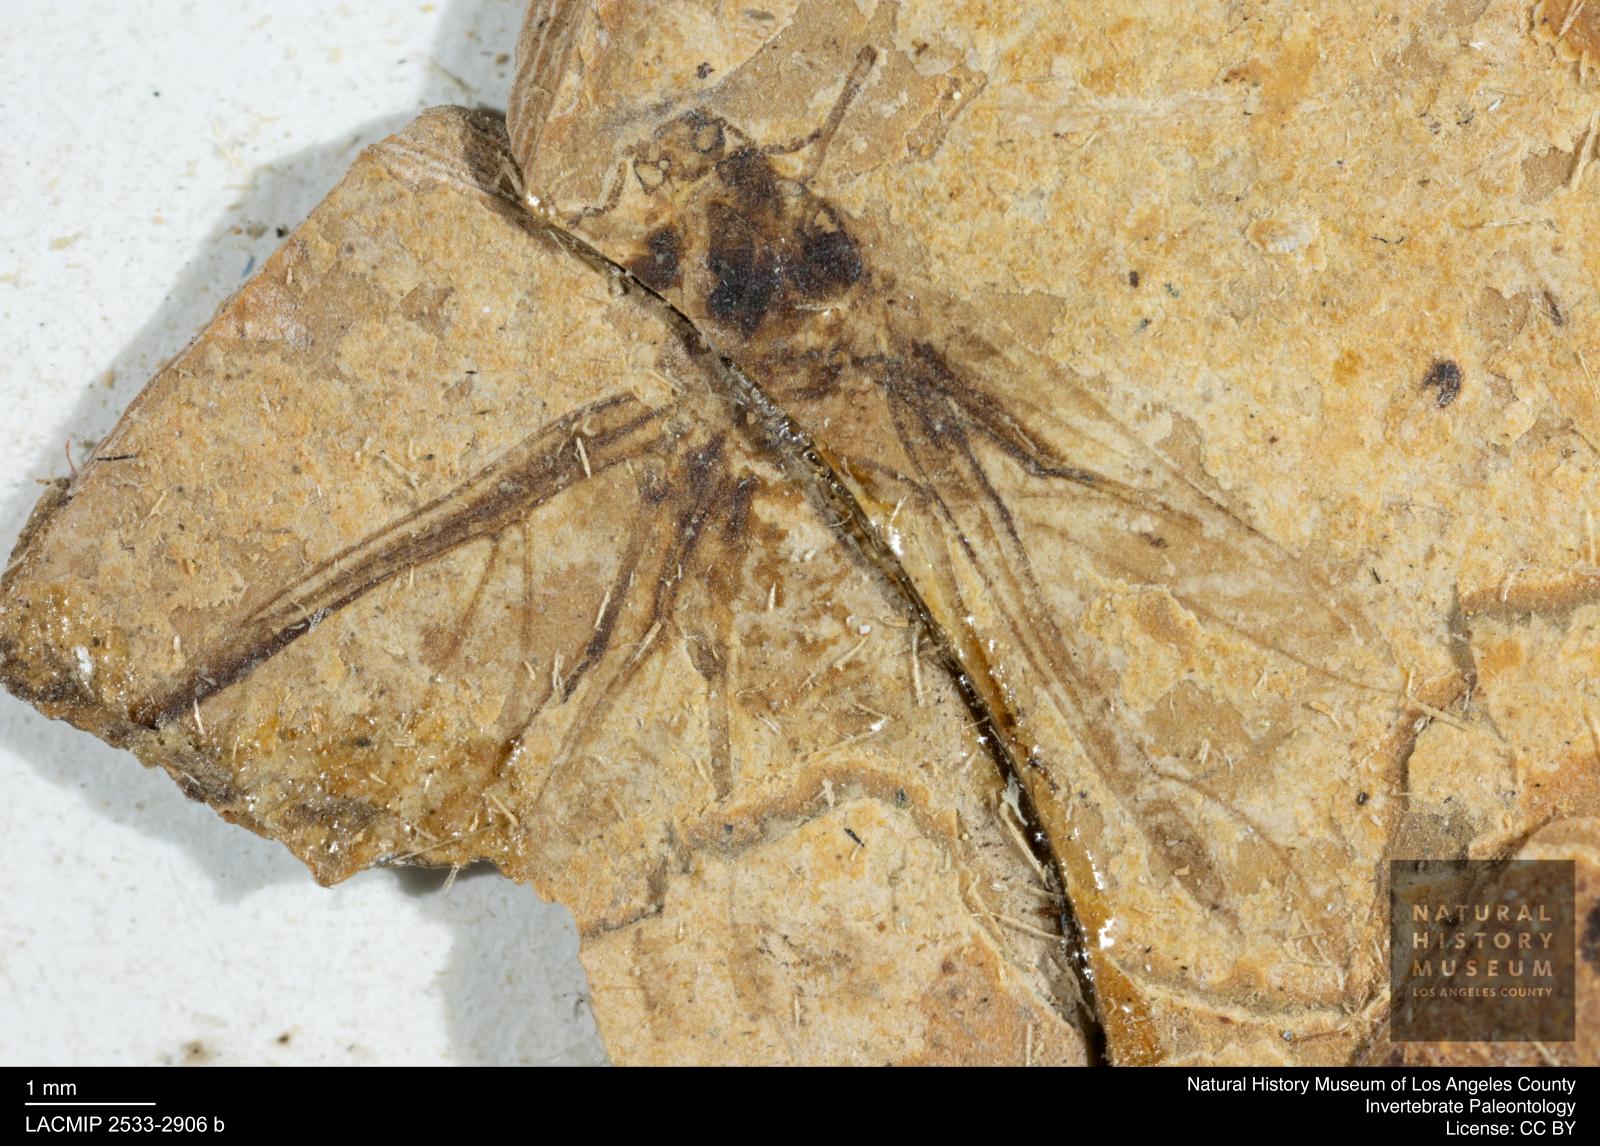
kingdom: Animalia
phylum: Arthropoda
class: Insecta
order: Hemiptera
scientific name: Hemiptera
